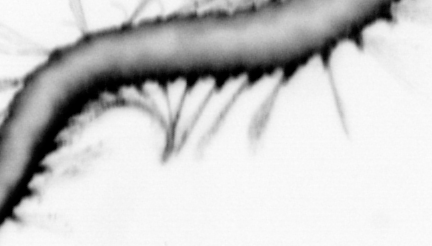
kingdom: Animalia
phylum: Annelida
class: Polychaeta
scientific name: Polychaeta
